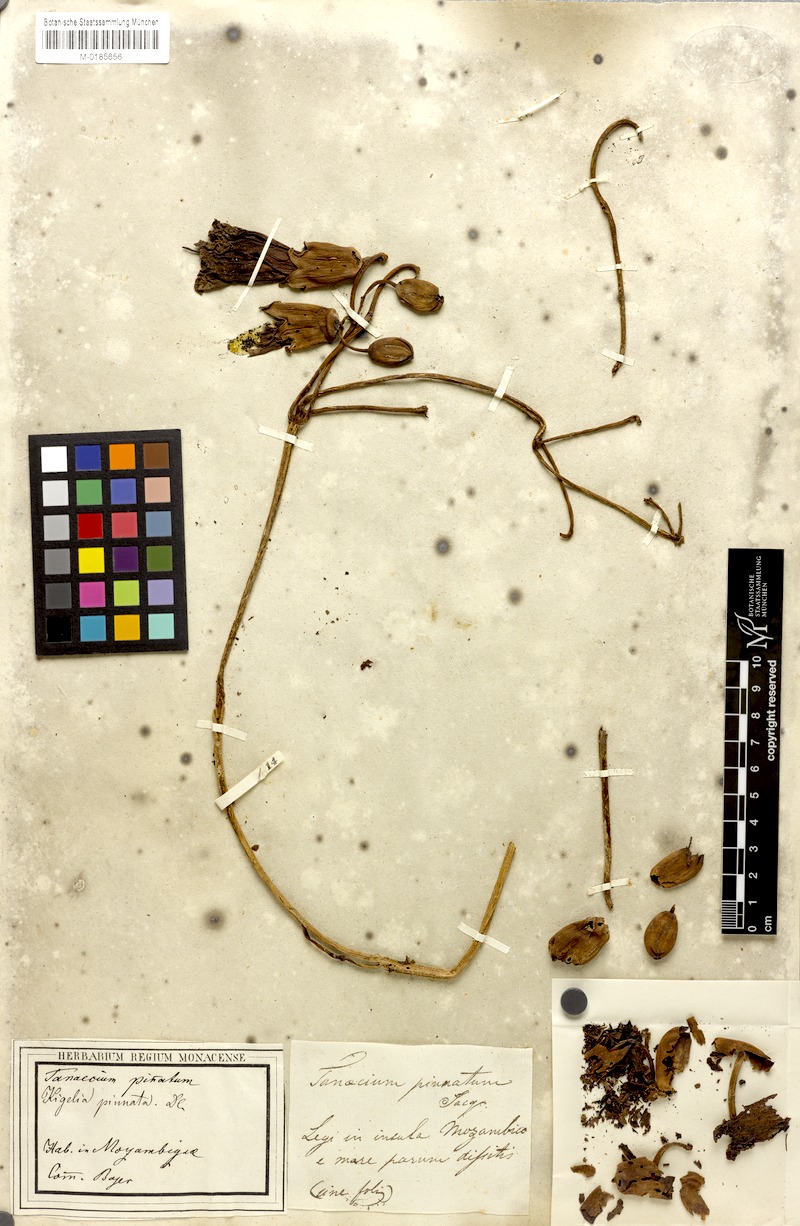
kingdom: Plantae
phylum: Tracheophyta
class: Magnoliopsida
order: Lamiales
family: Bignoniaceae
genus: Kigelia
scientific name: Kigelia africana
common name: Sausage tree
